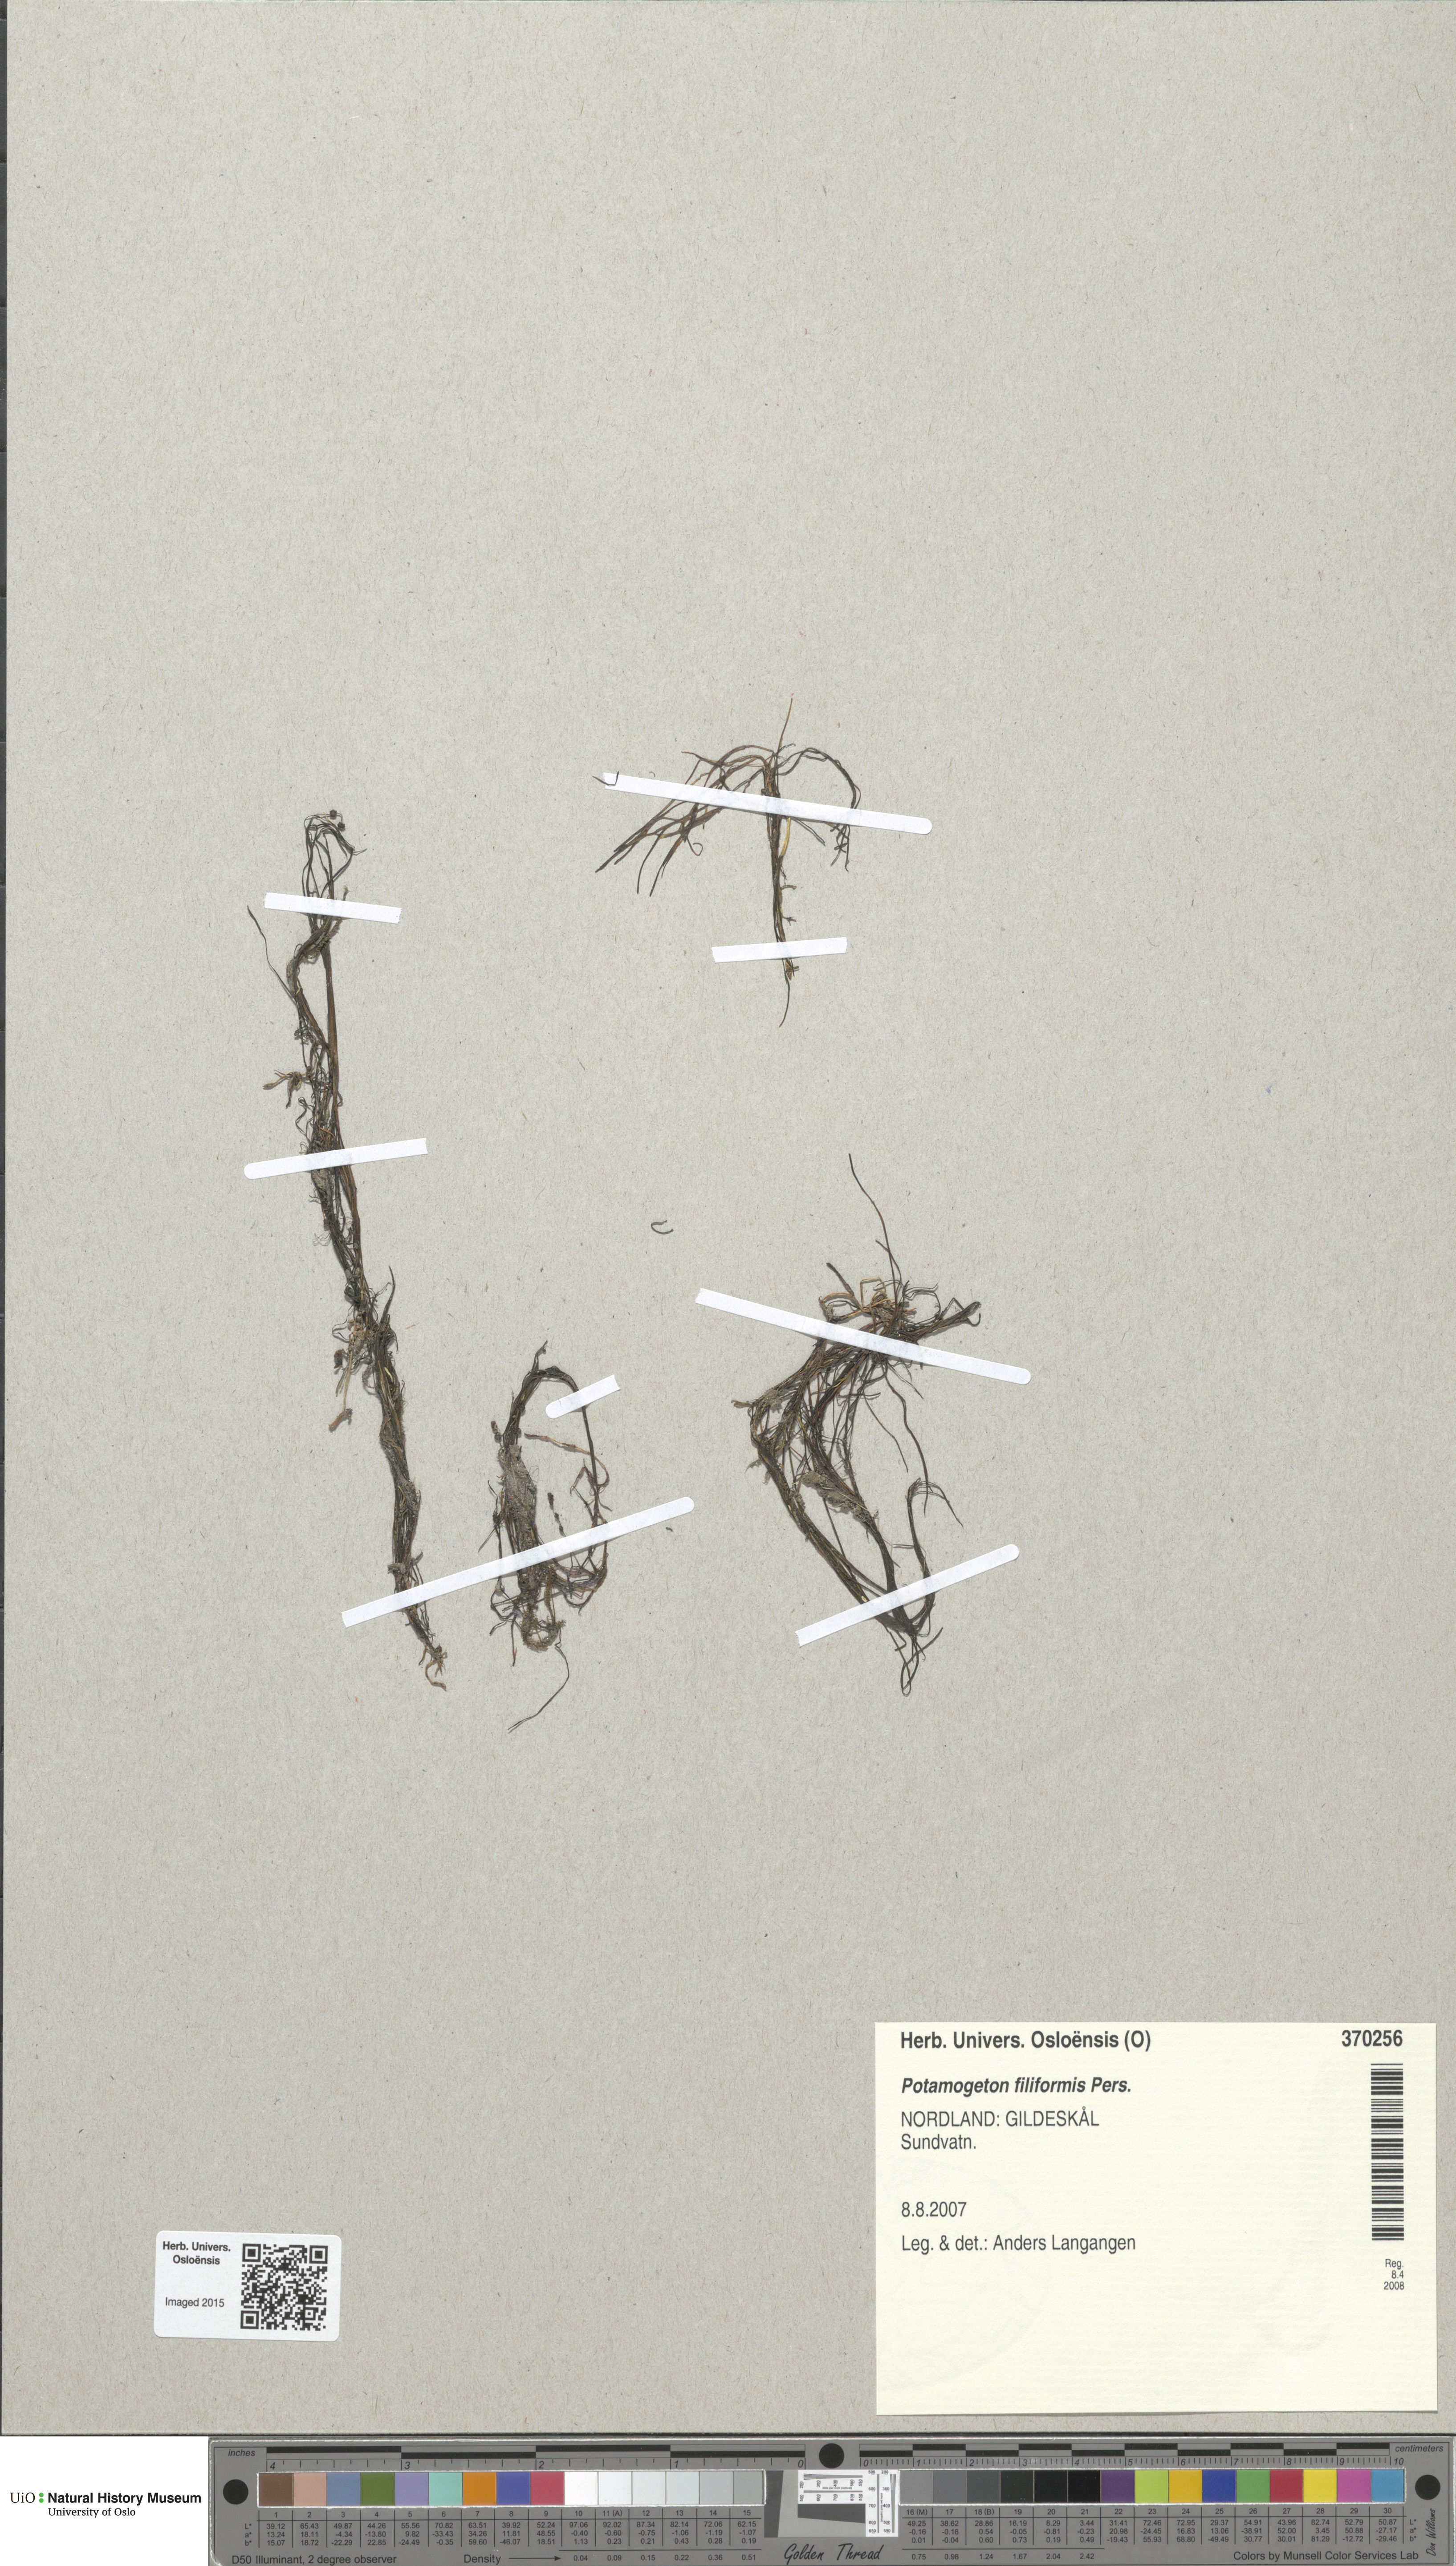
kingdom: Plantae
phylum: Tracheophyta
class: Liliopsida
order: Alismatales
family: Potamogetonaceae
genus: Stuckenia
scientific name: Stuckenia filiformis
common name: Alpine thread-leaved pondweed
